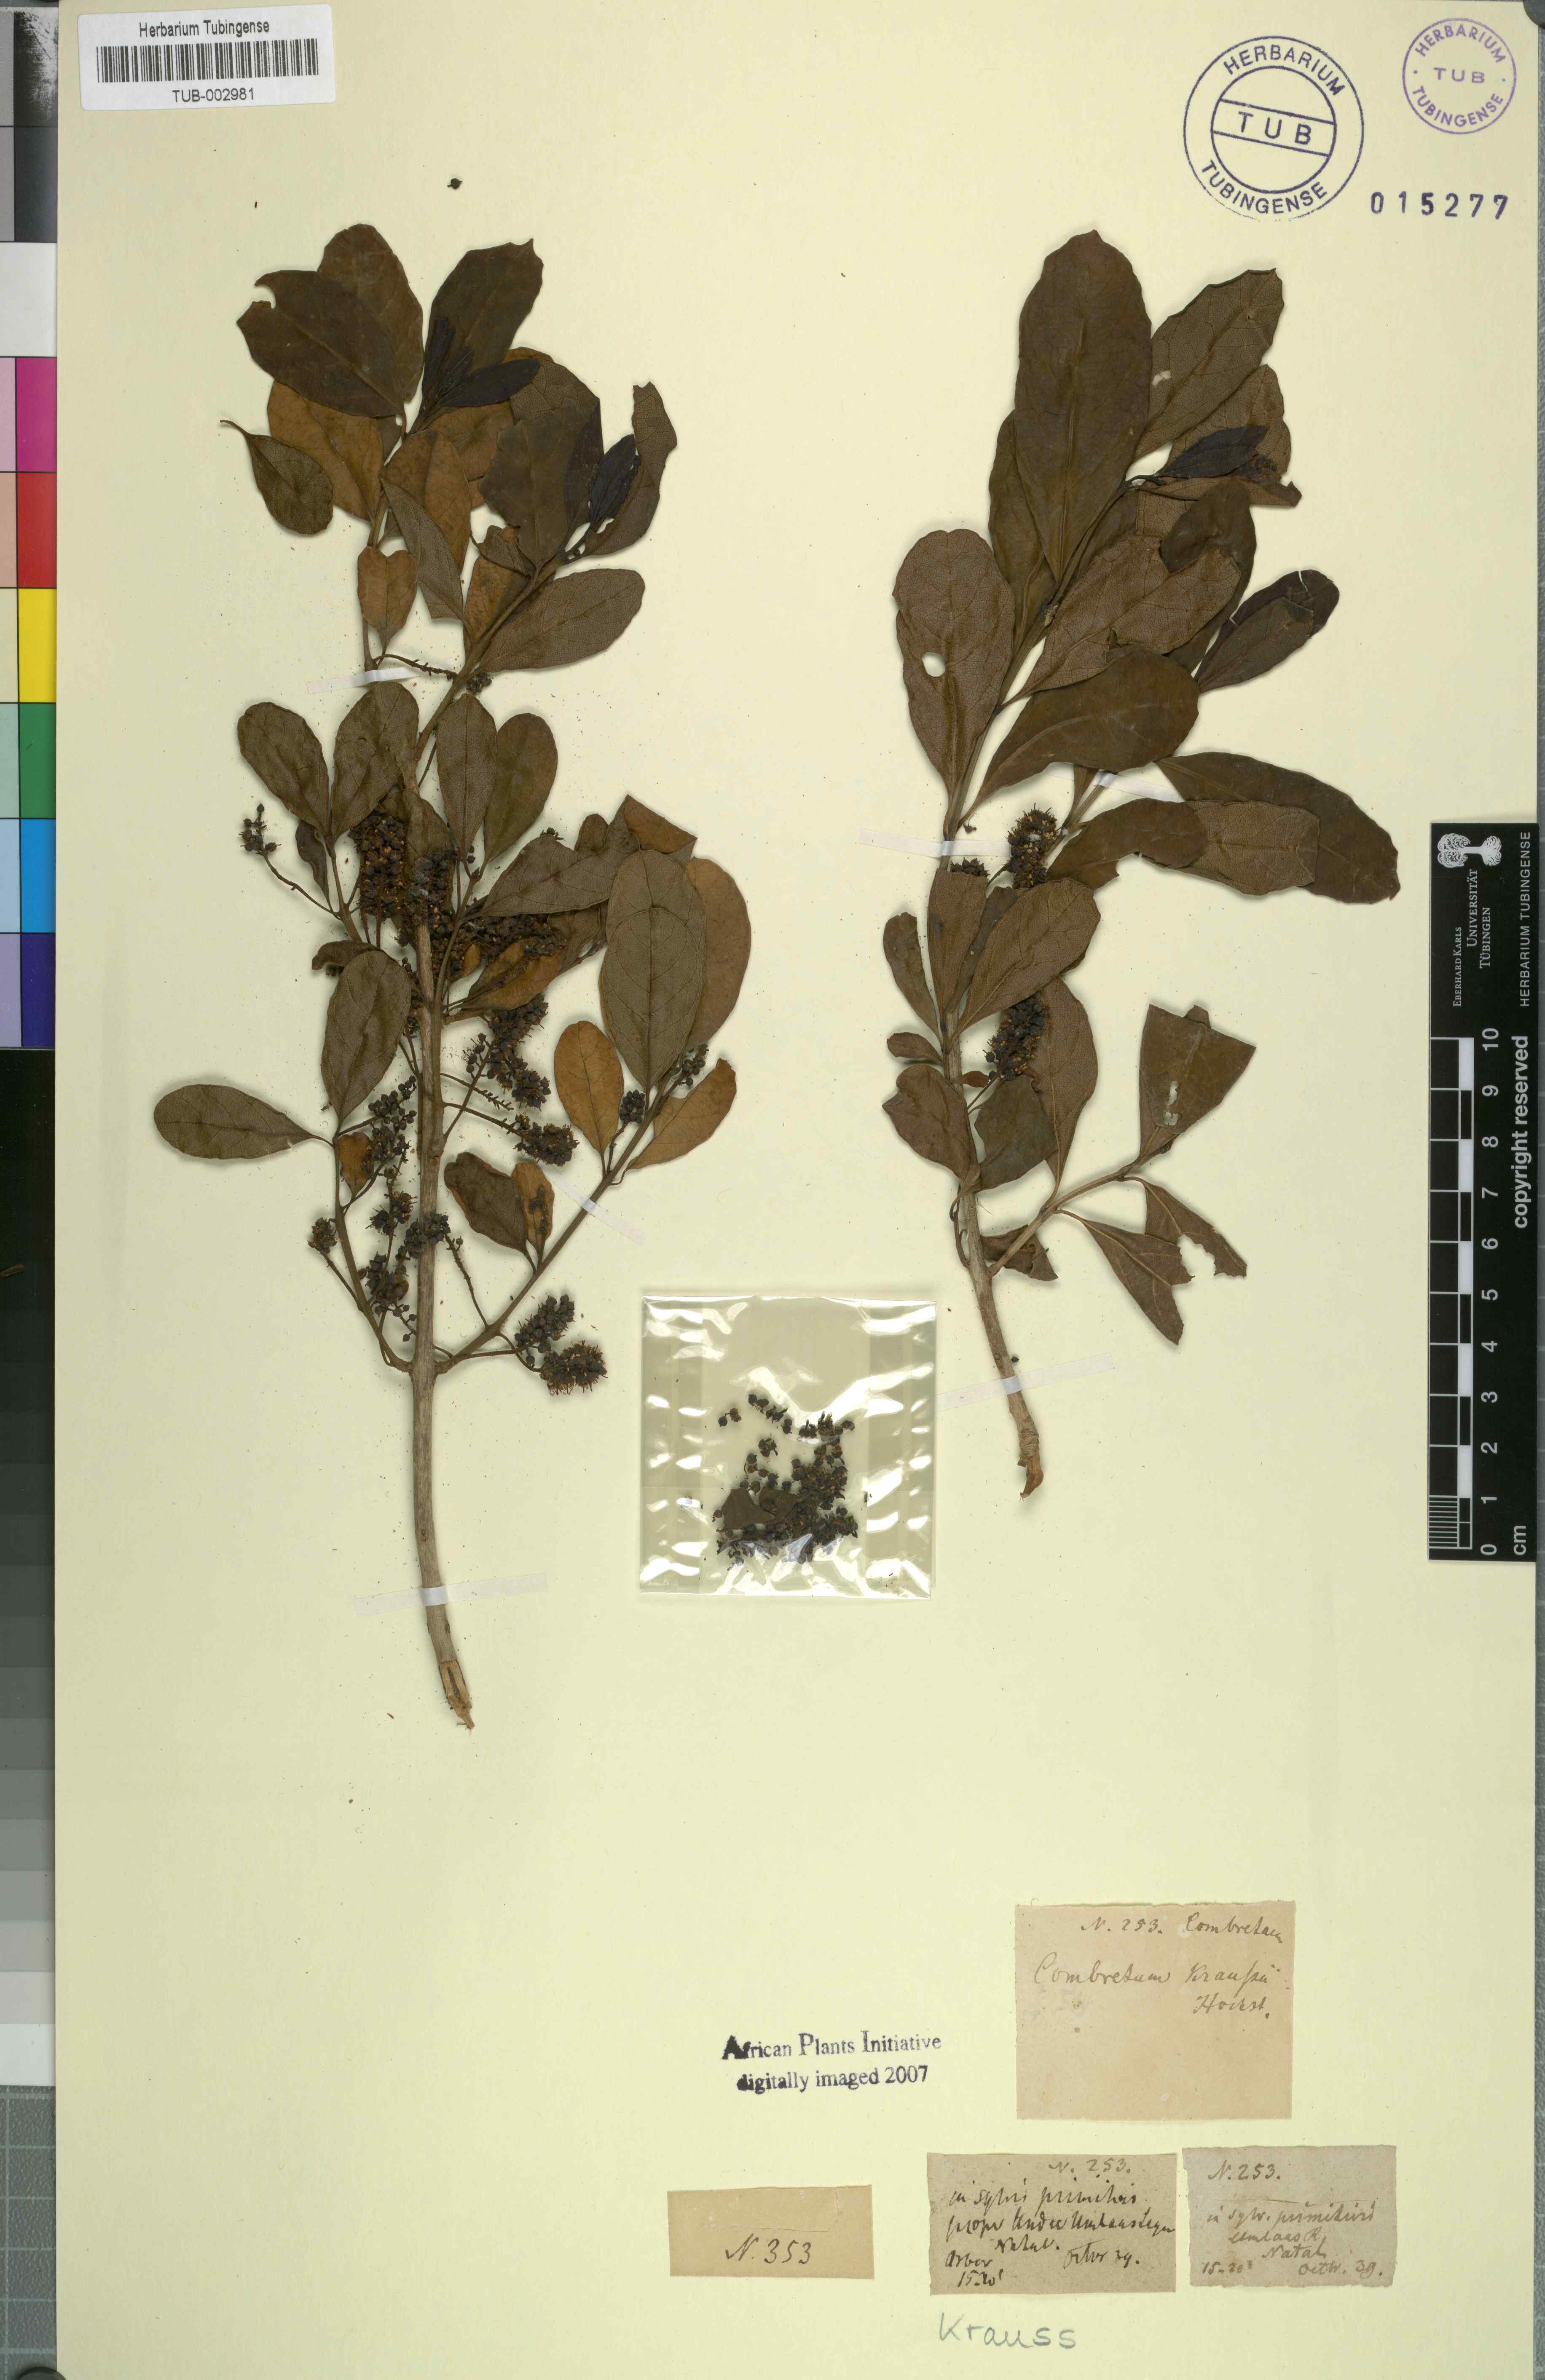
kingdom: Plantae
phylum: Tracheophyta
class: Magnoliopsida
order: Myrtales
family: Combretaceae
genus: Combretum
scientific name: Combretum kraussii
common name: Forest bushwillow
